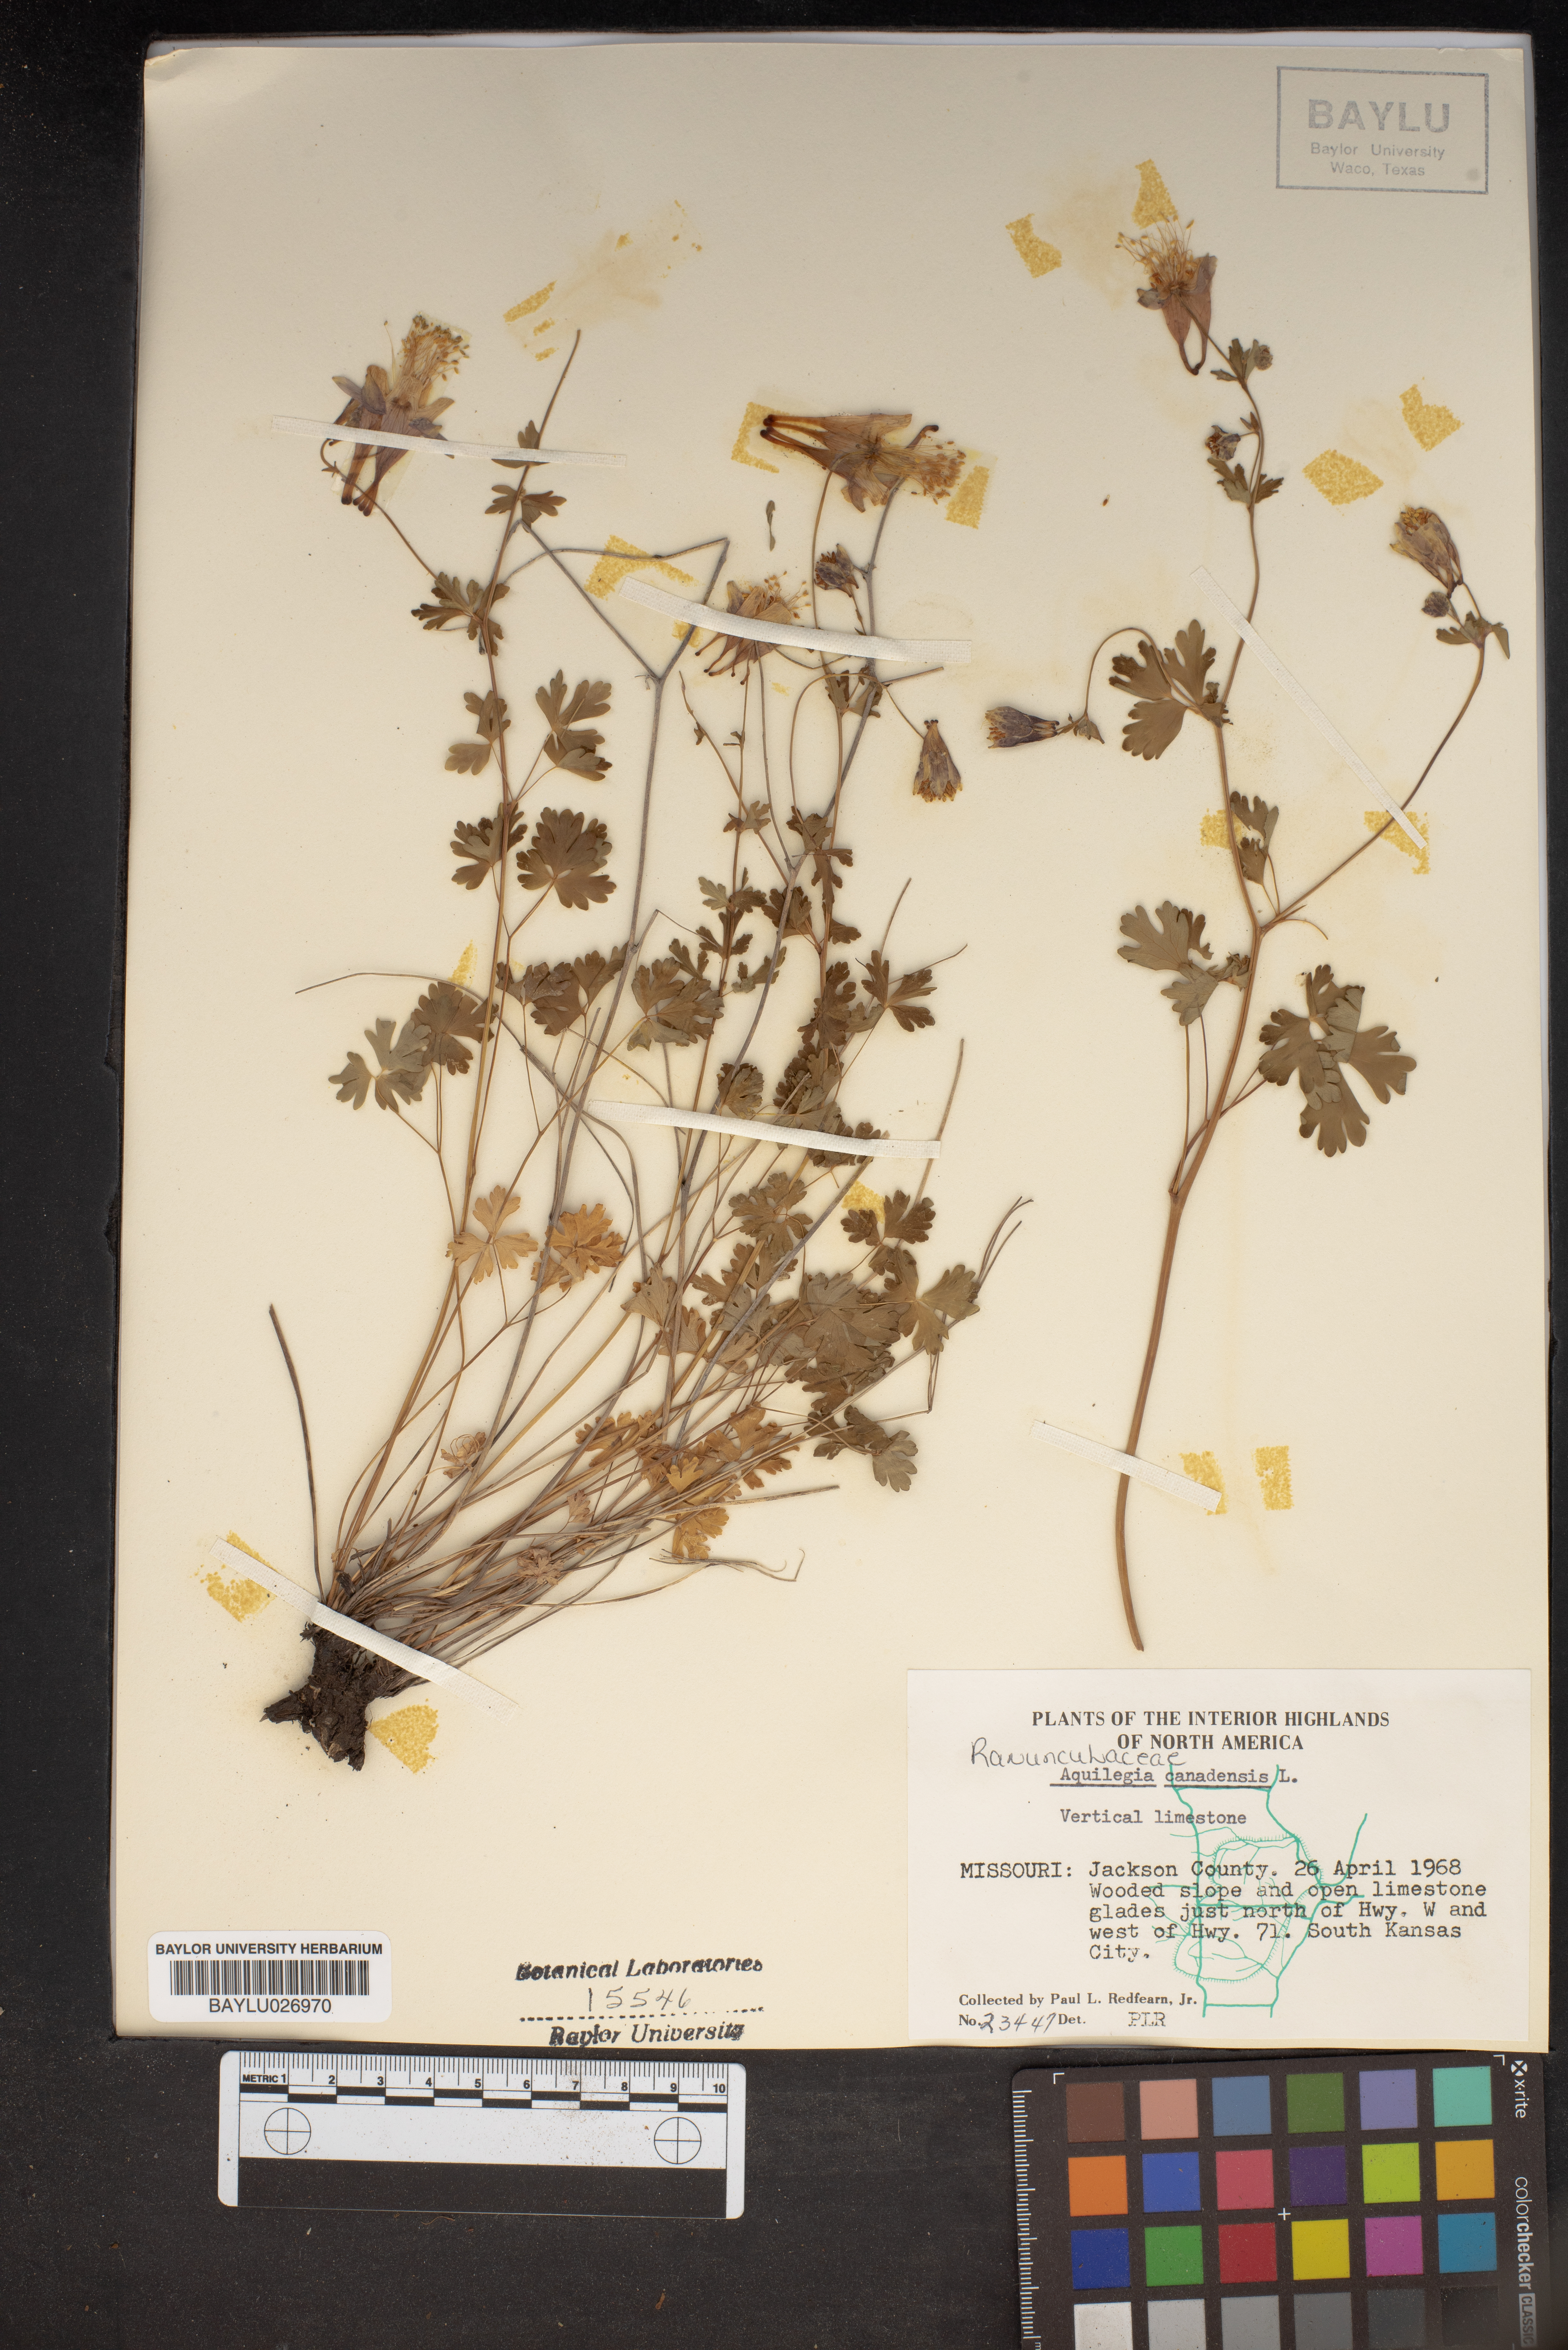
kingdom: Plantae
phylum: Tracheophyta
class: Magnoliopsida
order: Ranunculales
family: Ranunculaceae
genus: Aquilegia
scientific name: Aquilegia canadensis
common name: American columbine
